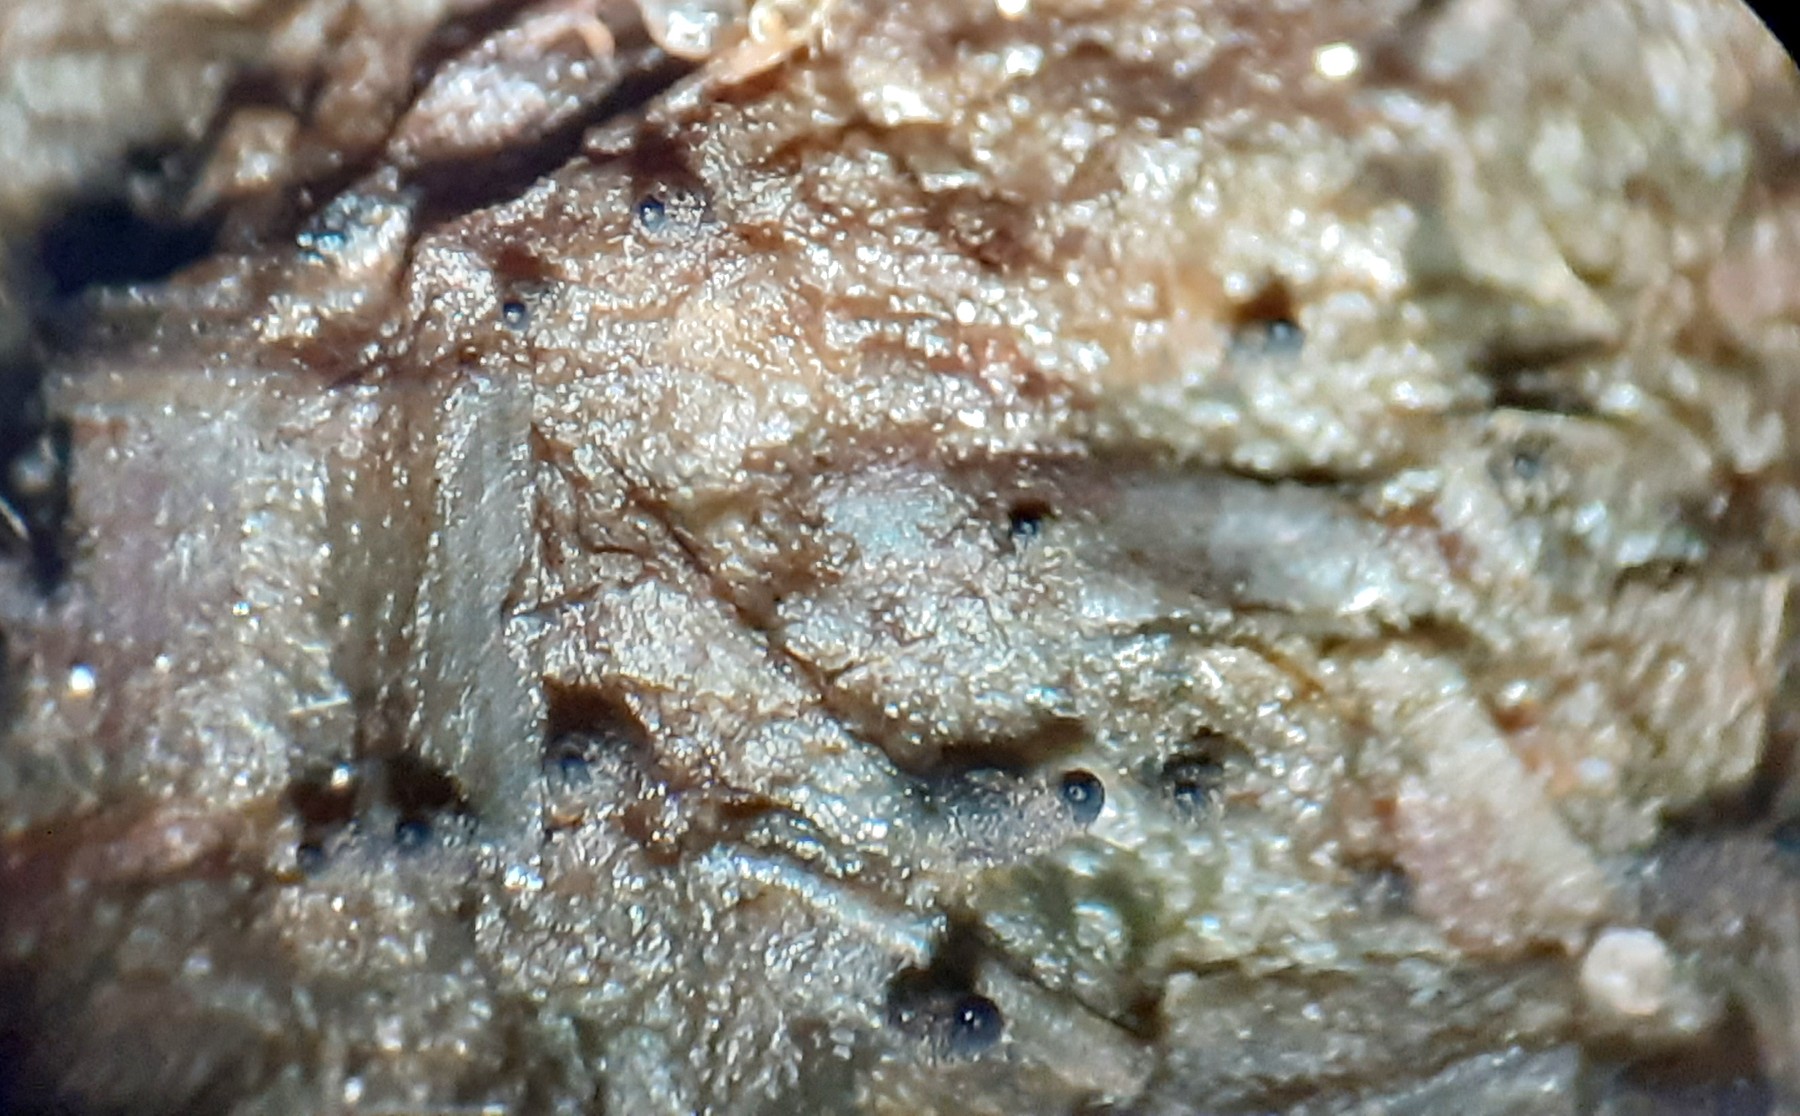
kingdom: Fungi
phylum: Ascomycota
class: Sordariomycetes
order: Sordariales
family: Neoschizotheciaceae
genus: Neoschizothecium
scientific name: Neoschizothecium tetrasporum
